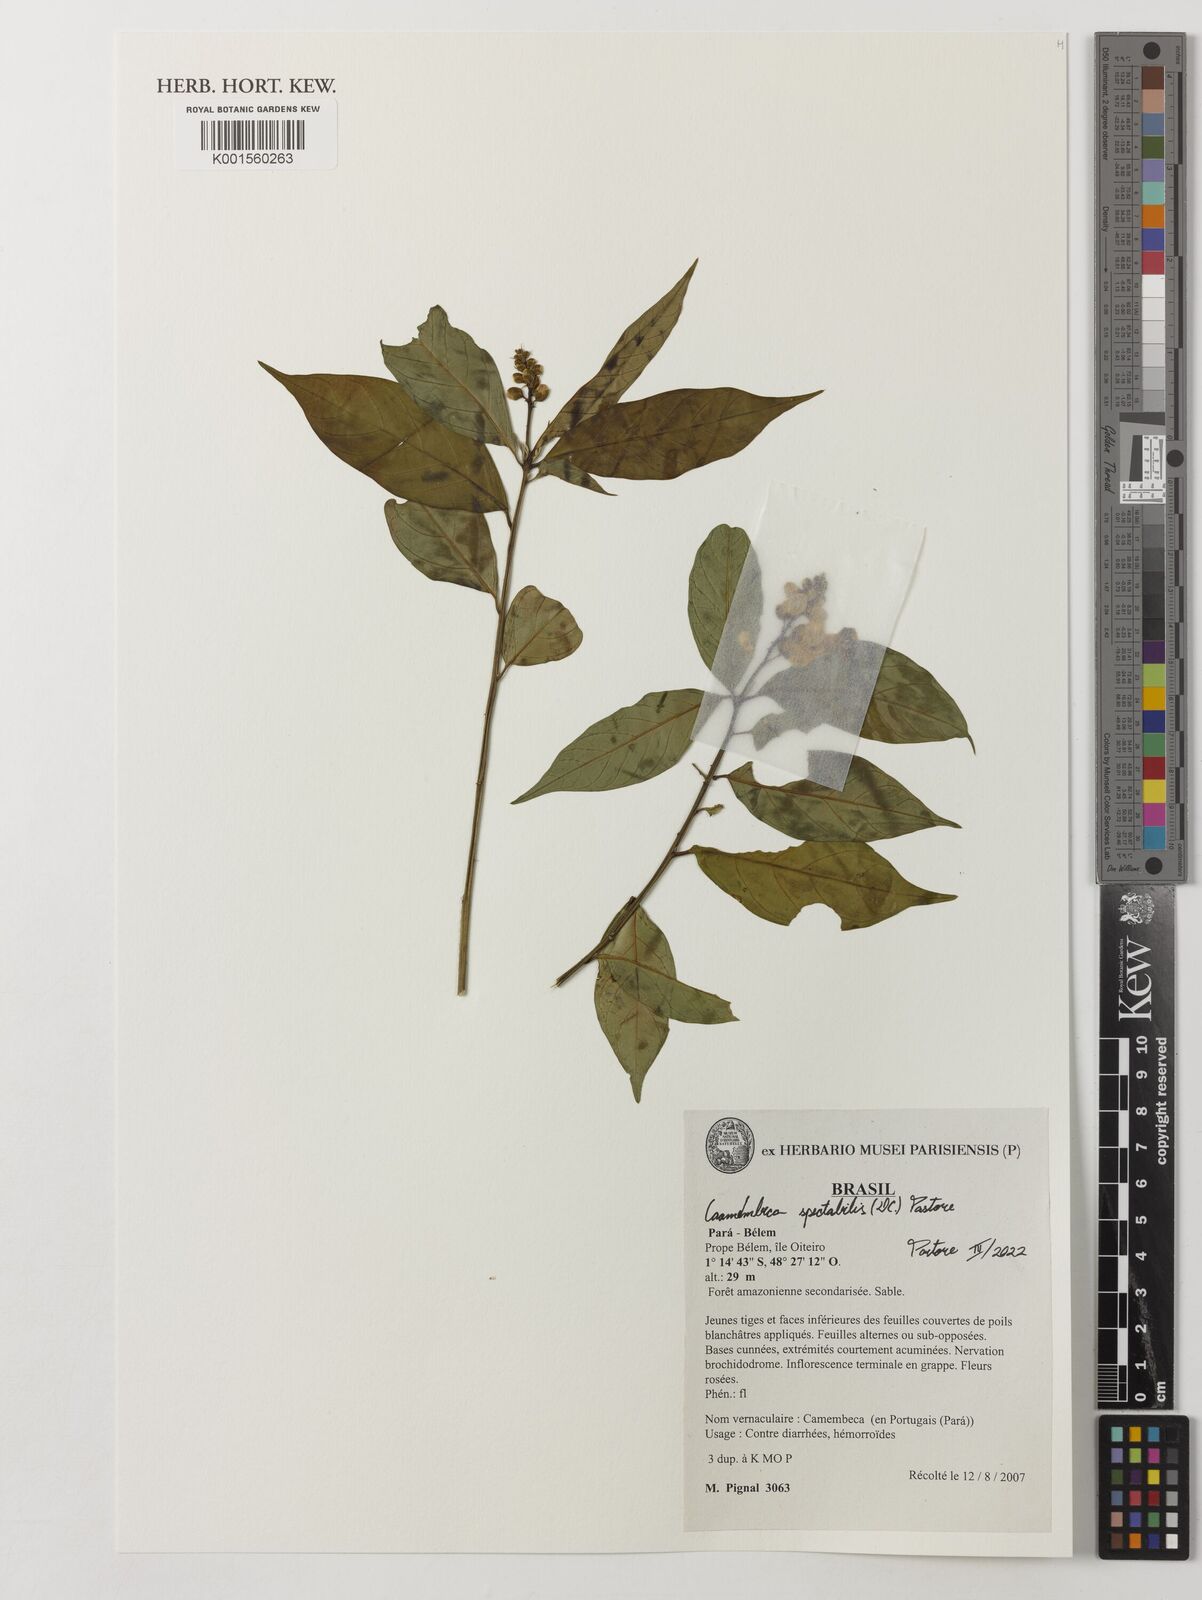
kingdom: Plantae
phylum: Tracheophyta
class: Magnoliopsida
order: Fabales
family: Polygalaceae
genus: Caamembeca
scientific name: Caamembeca spectabilis
